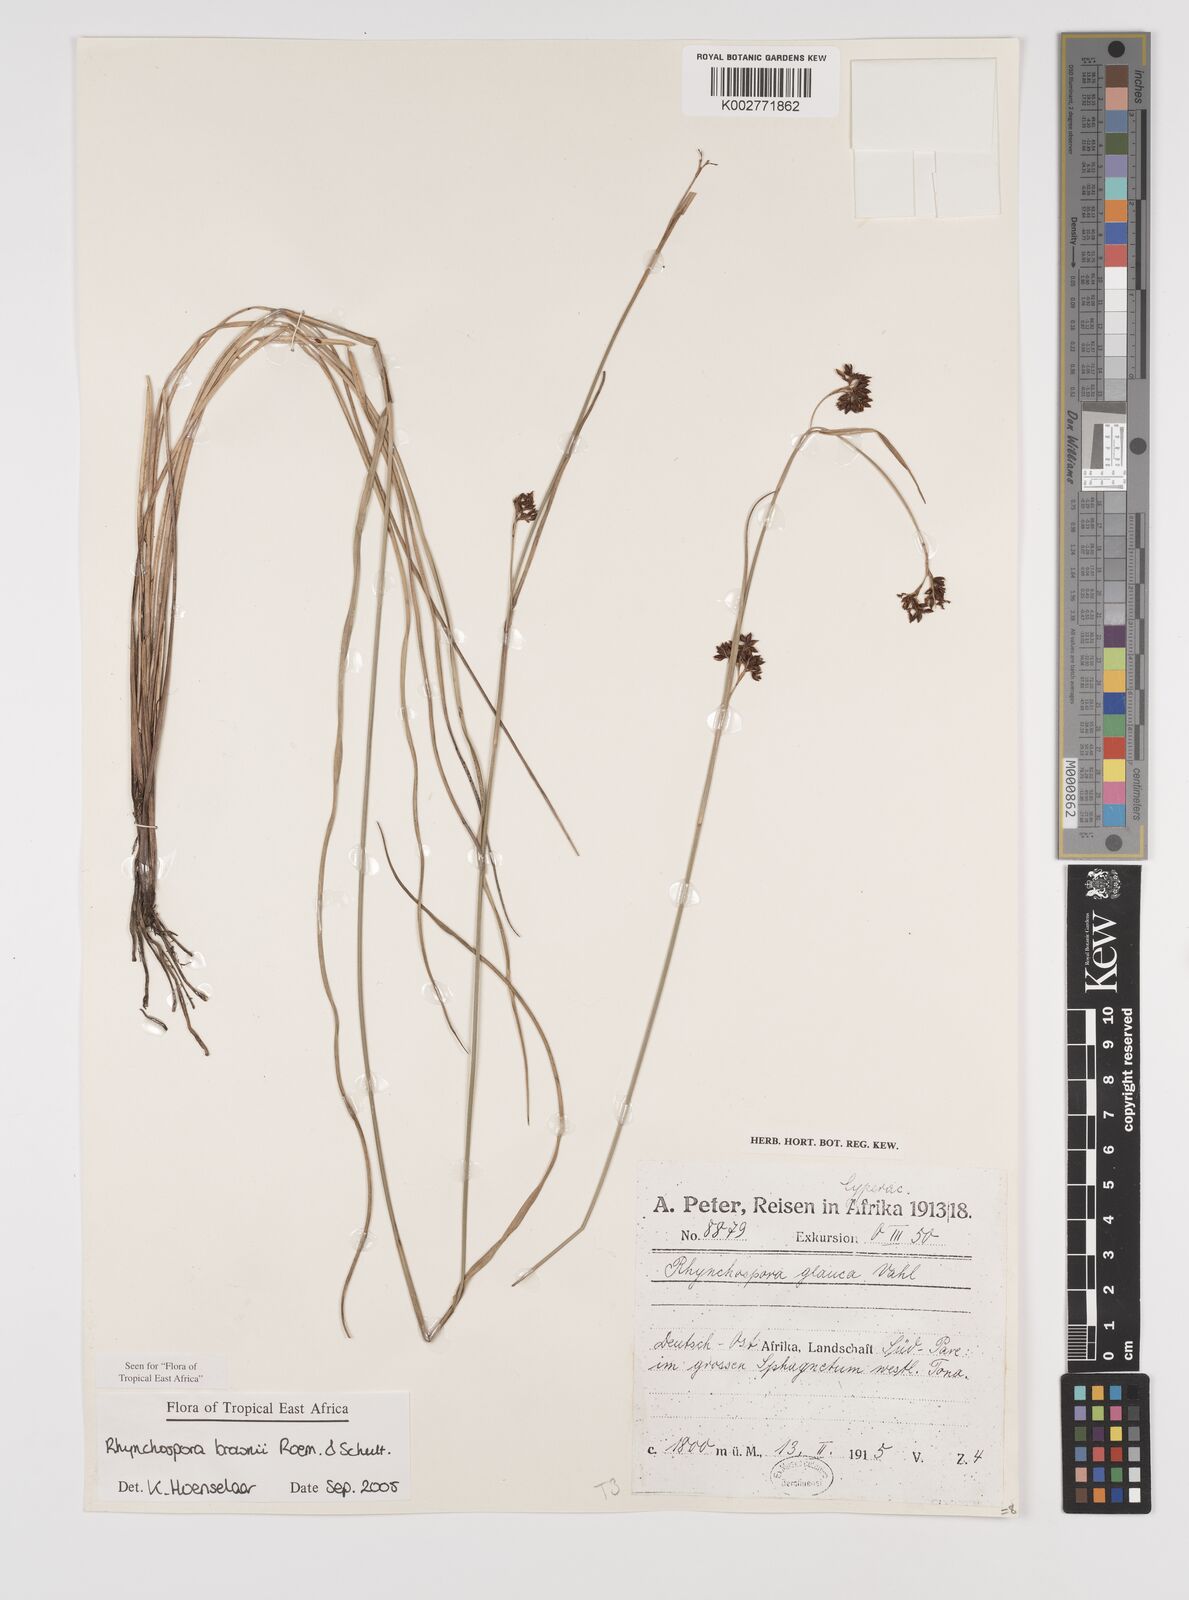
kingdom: Plantae
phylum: Tracheophyta
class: Liliopsida
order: Poales
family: Cyperaceae
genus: Rhynchospora
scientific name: Rhynchospora brownii
